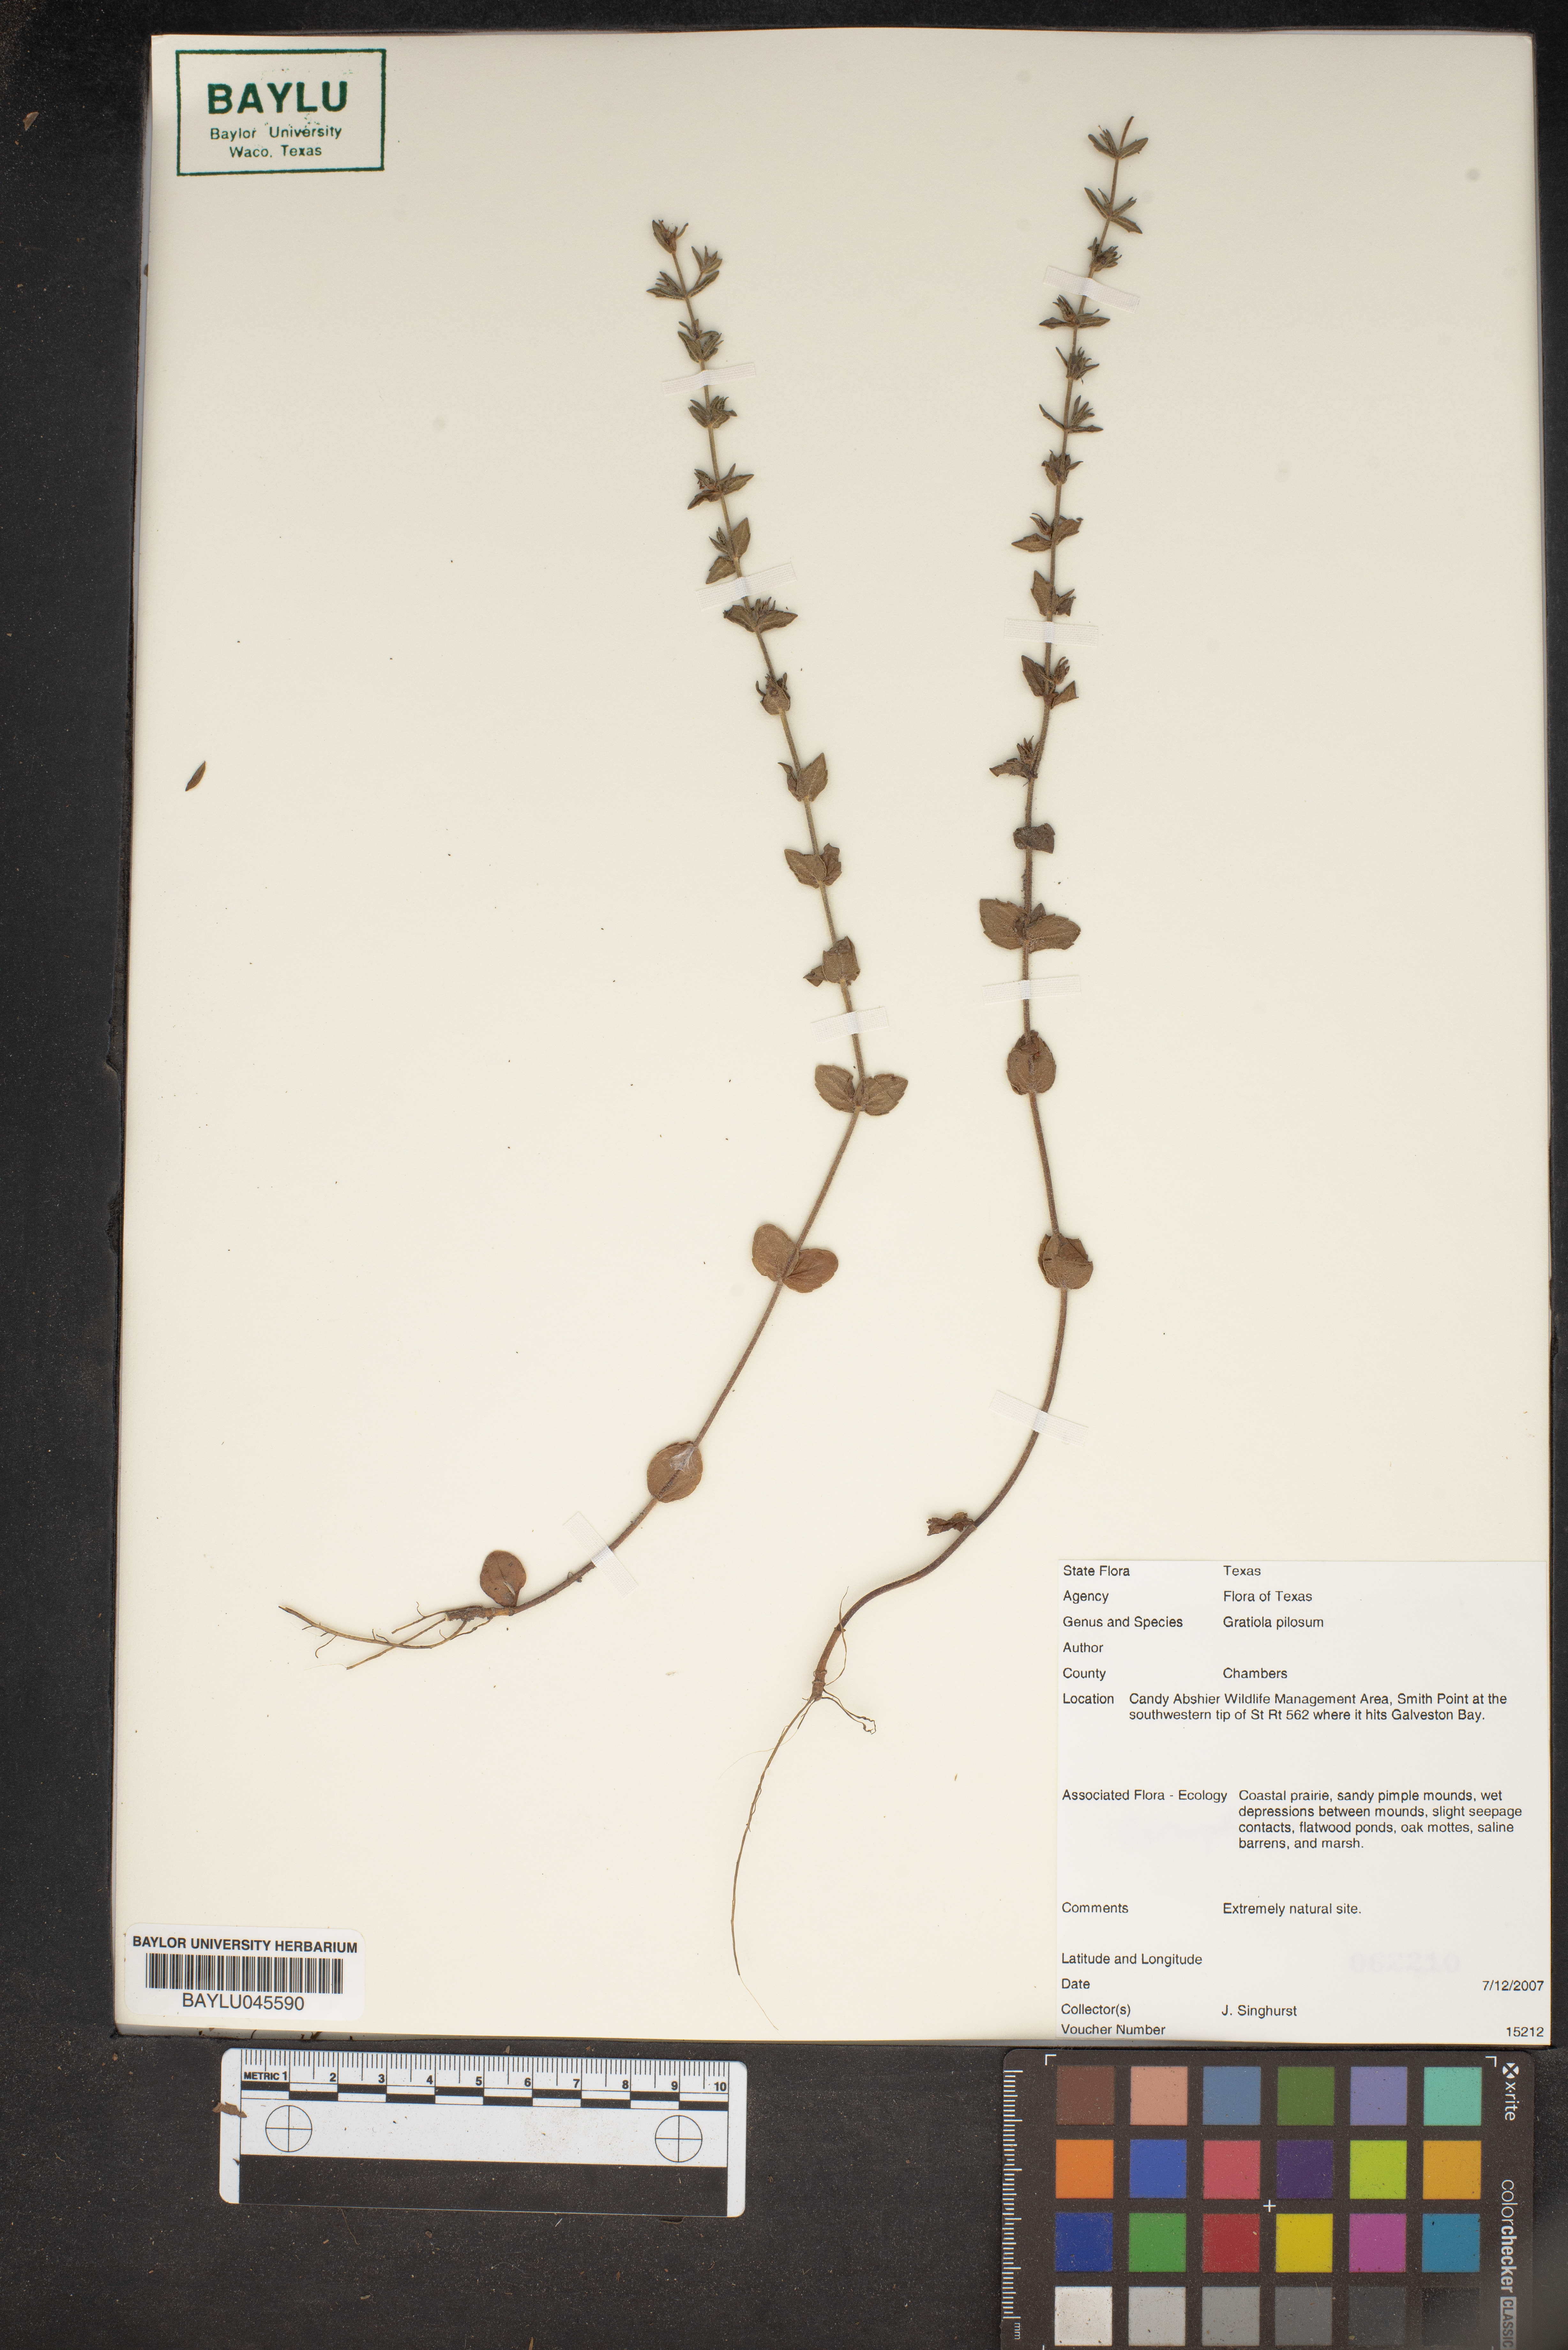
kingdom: Plantae
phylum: Tracheophyta
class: Magnoliopsida
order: Lamiales
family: Plantaginaceae
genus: Gratiola
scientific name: Gratiola pilosa
